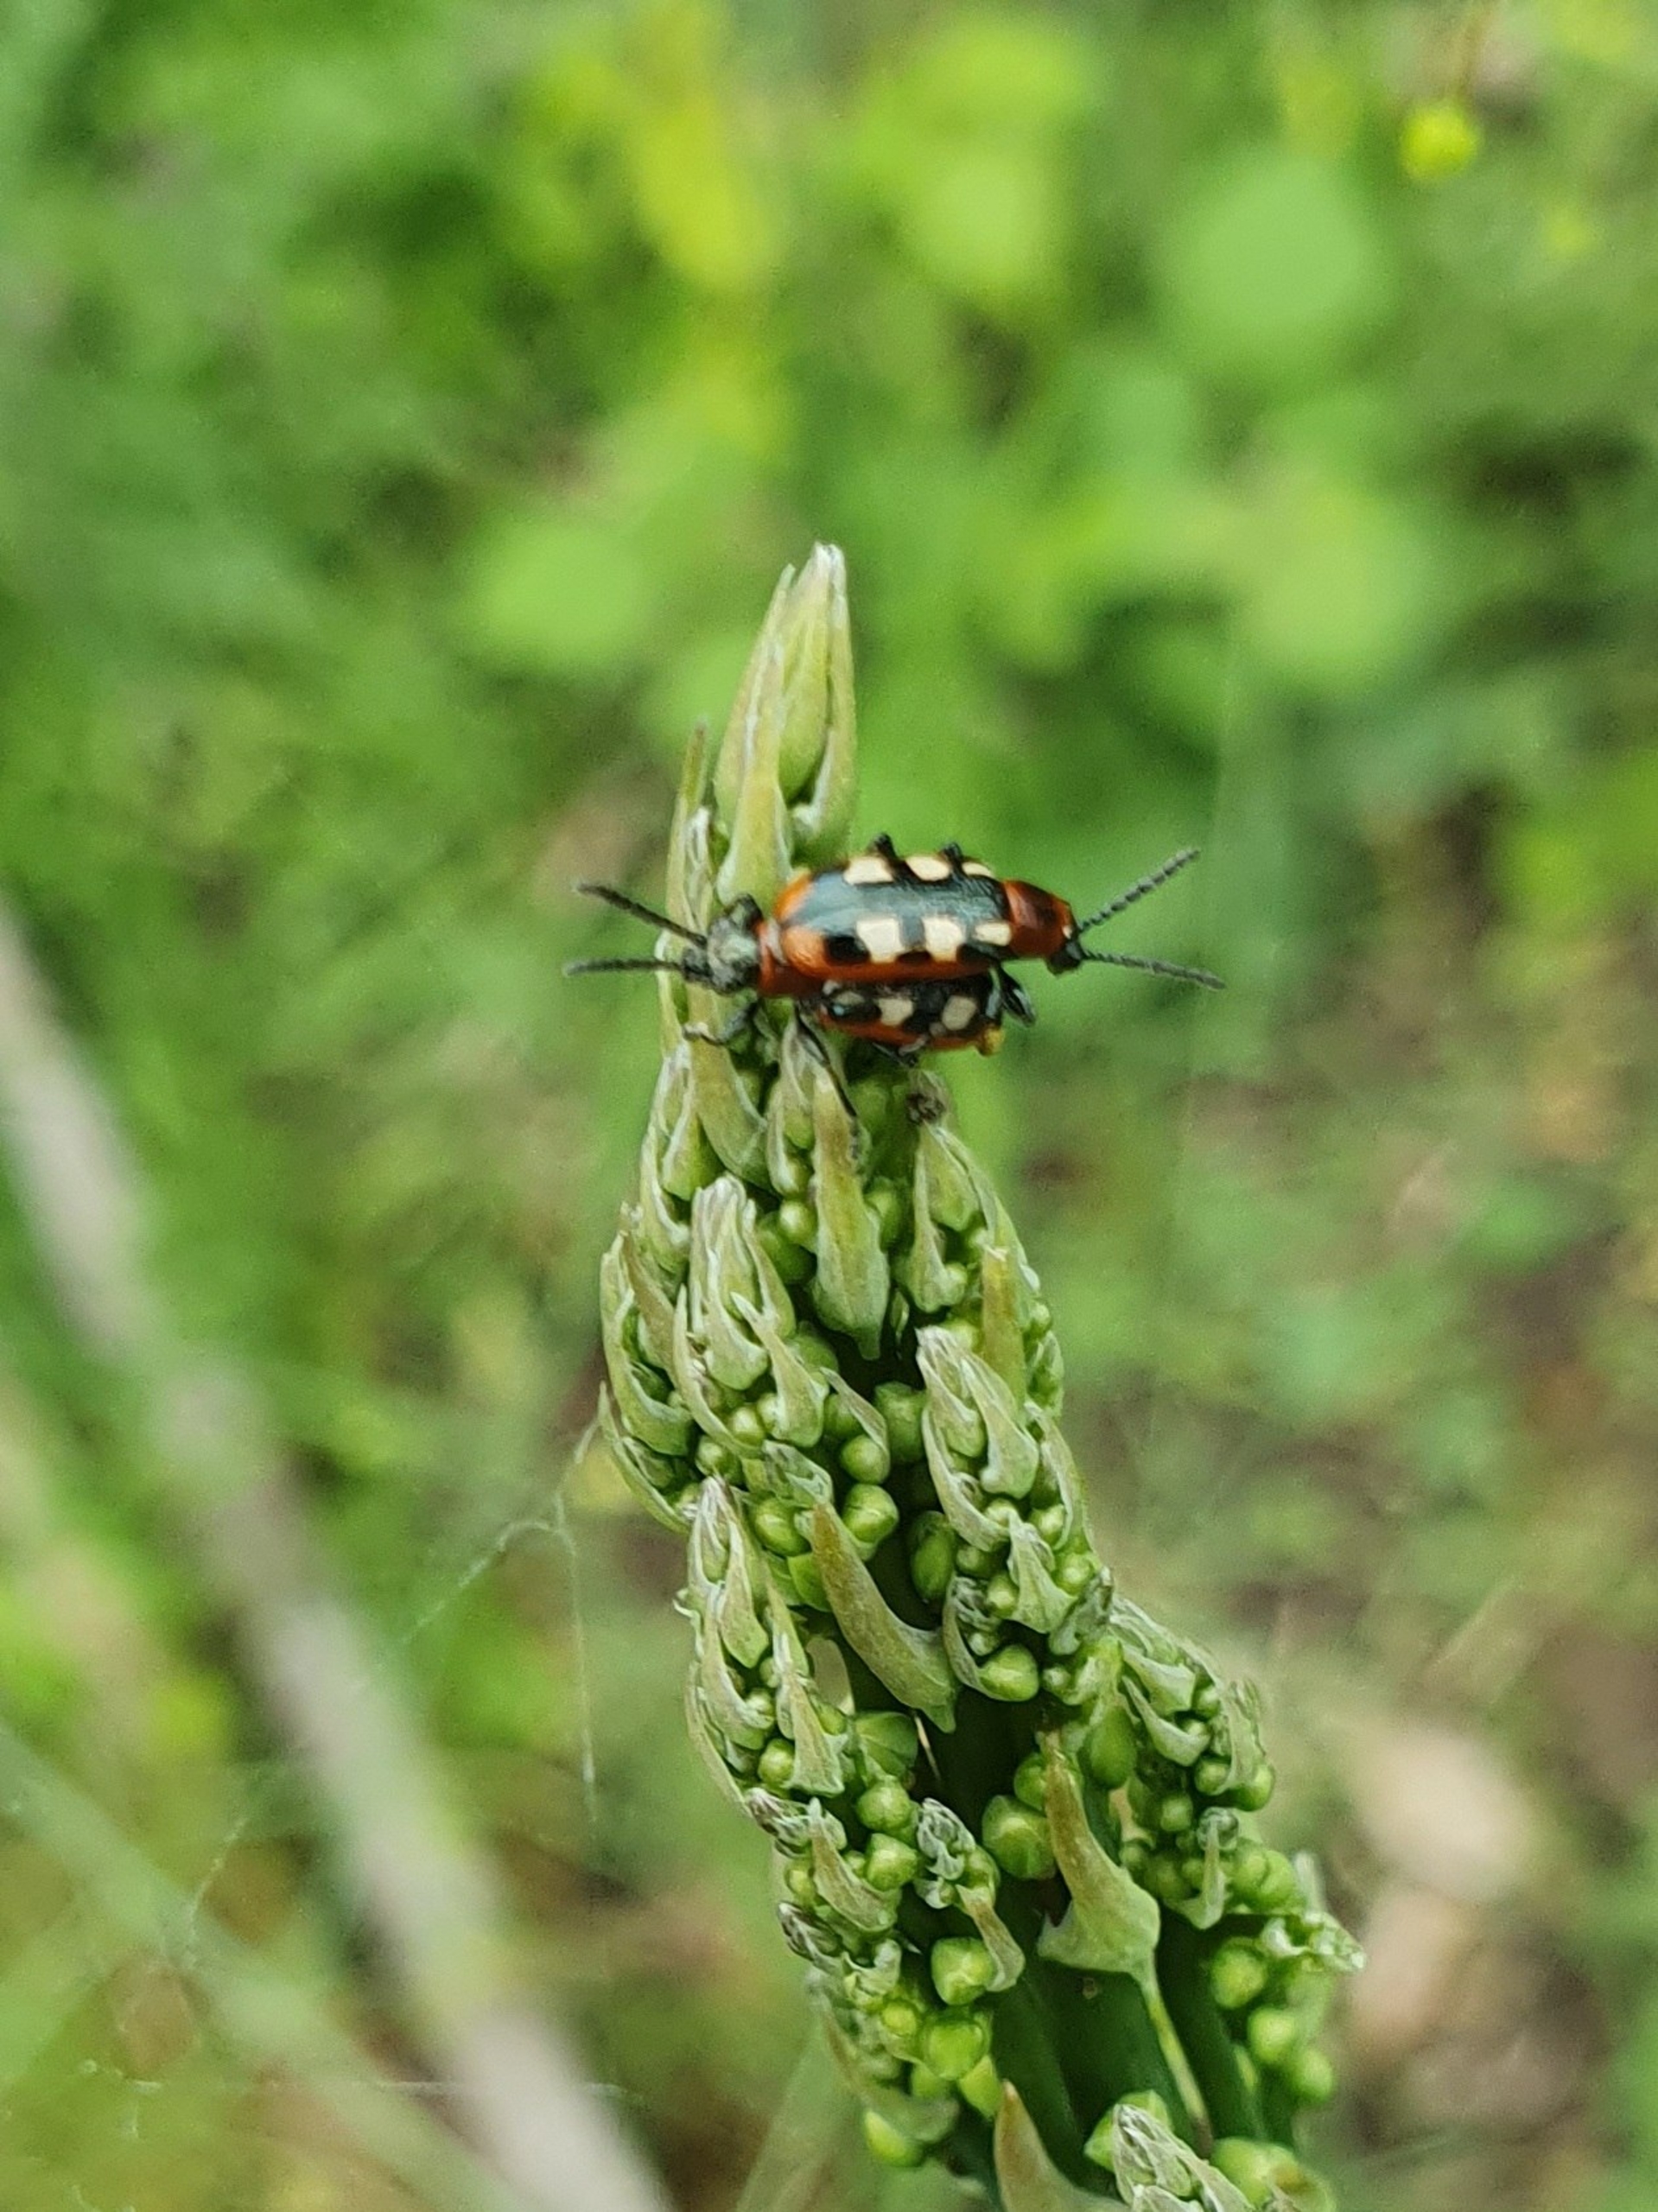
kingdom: Animalia
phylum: Arthropoda
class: Insecta
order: Coleoptera
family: Chrysomelidae
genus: Crioceris
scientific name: Crioceris asparagi
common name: Gulplettet aspargesbille
